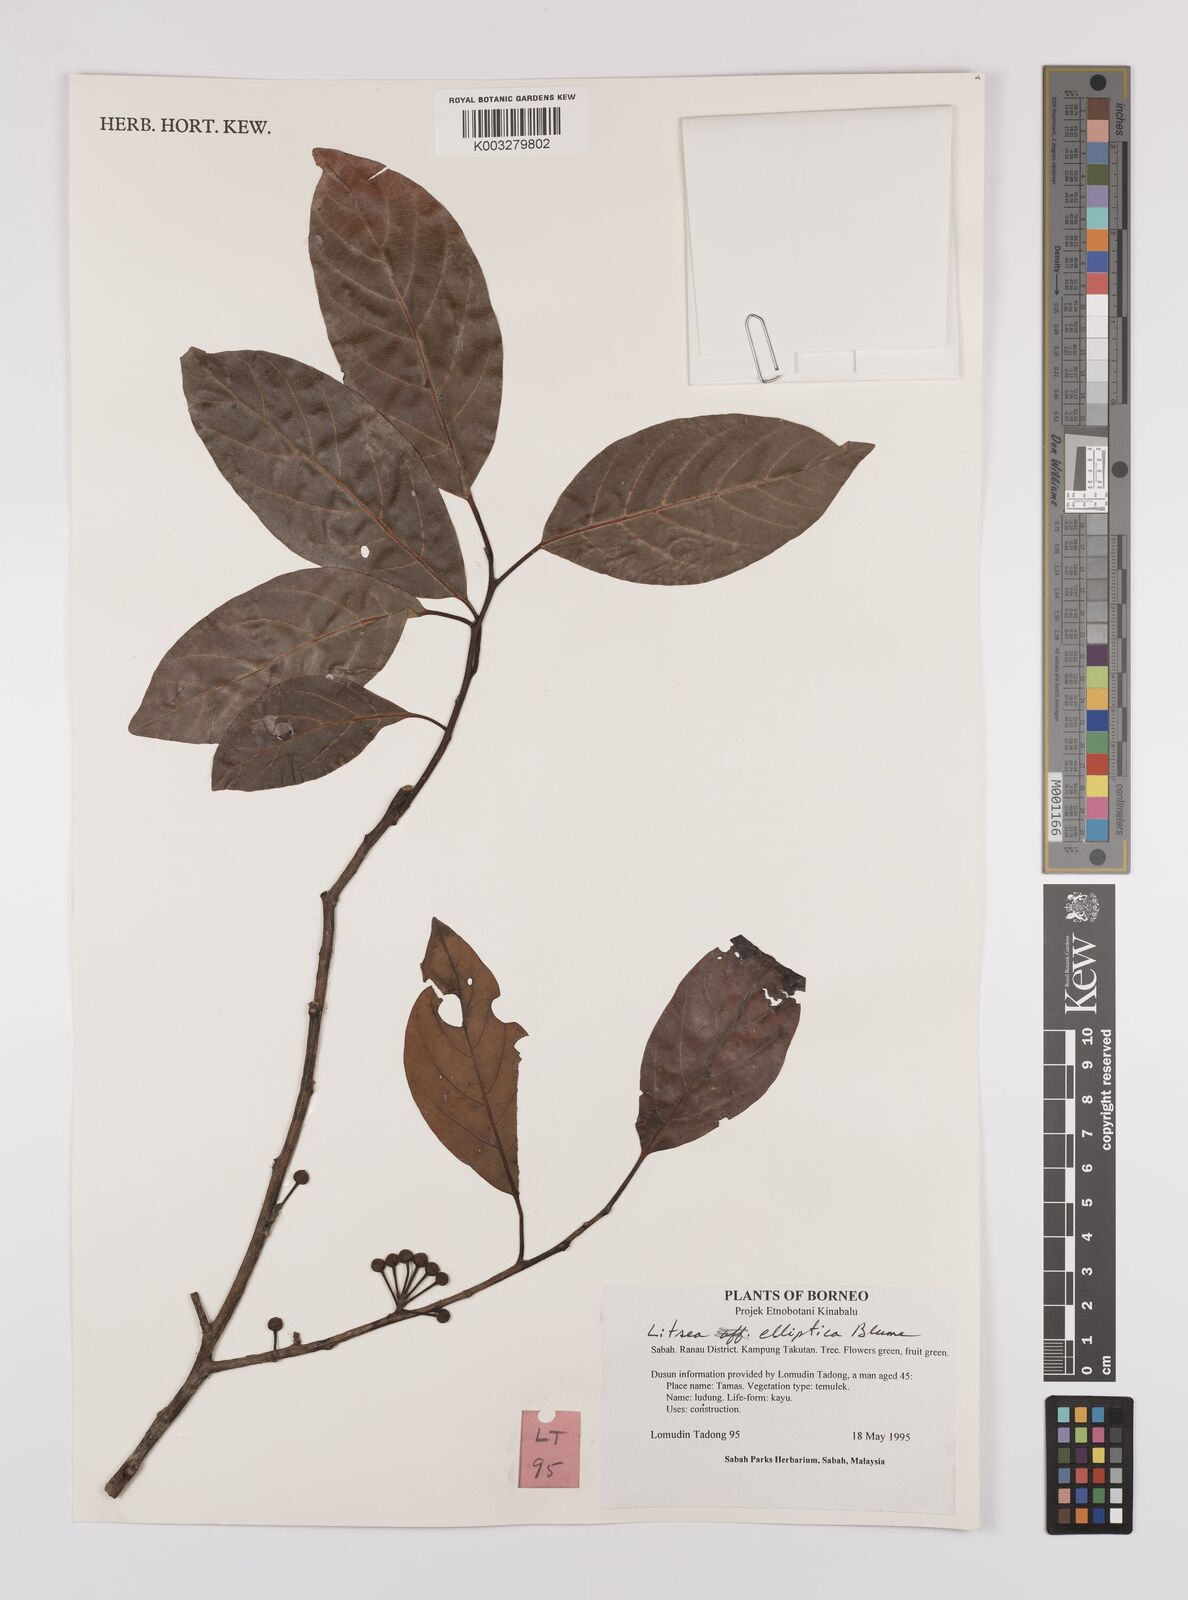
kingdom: Plantae
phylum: Tracheophyta
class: Magnoliopsida
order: Laurales
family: Lauraceae
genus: Litsea
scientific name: Litsea elliptica
